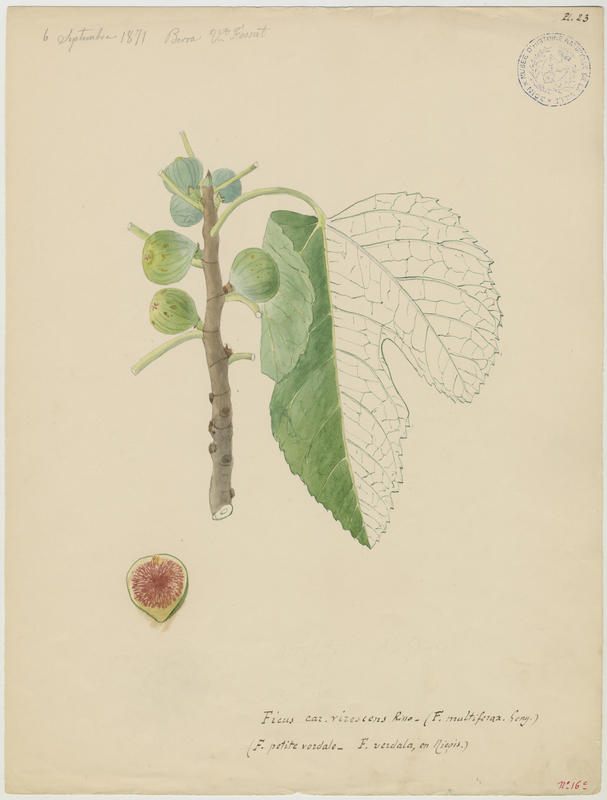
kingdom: Plantae
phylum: Tracheophyta
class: Magnoliopsida
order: Rosales
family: Moraceae
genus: Ficus
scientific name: Ficus carica
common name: Fig
